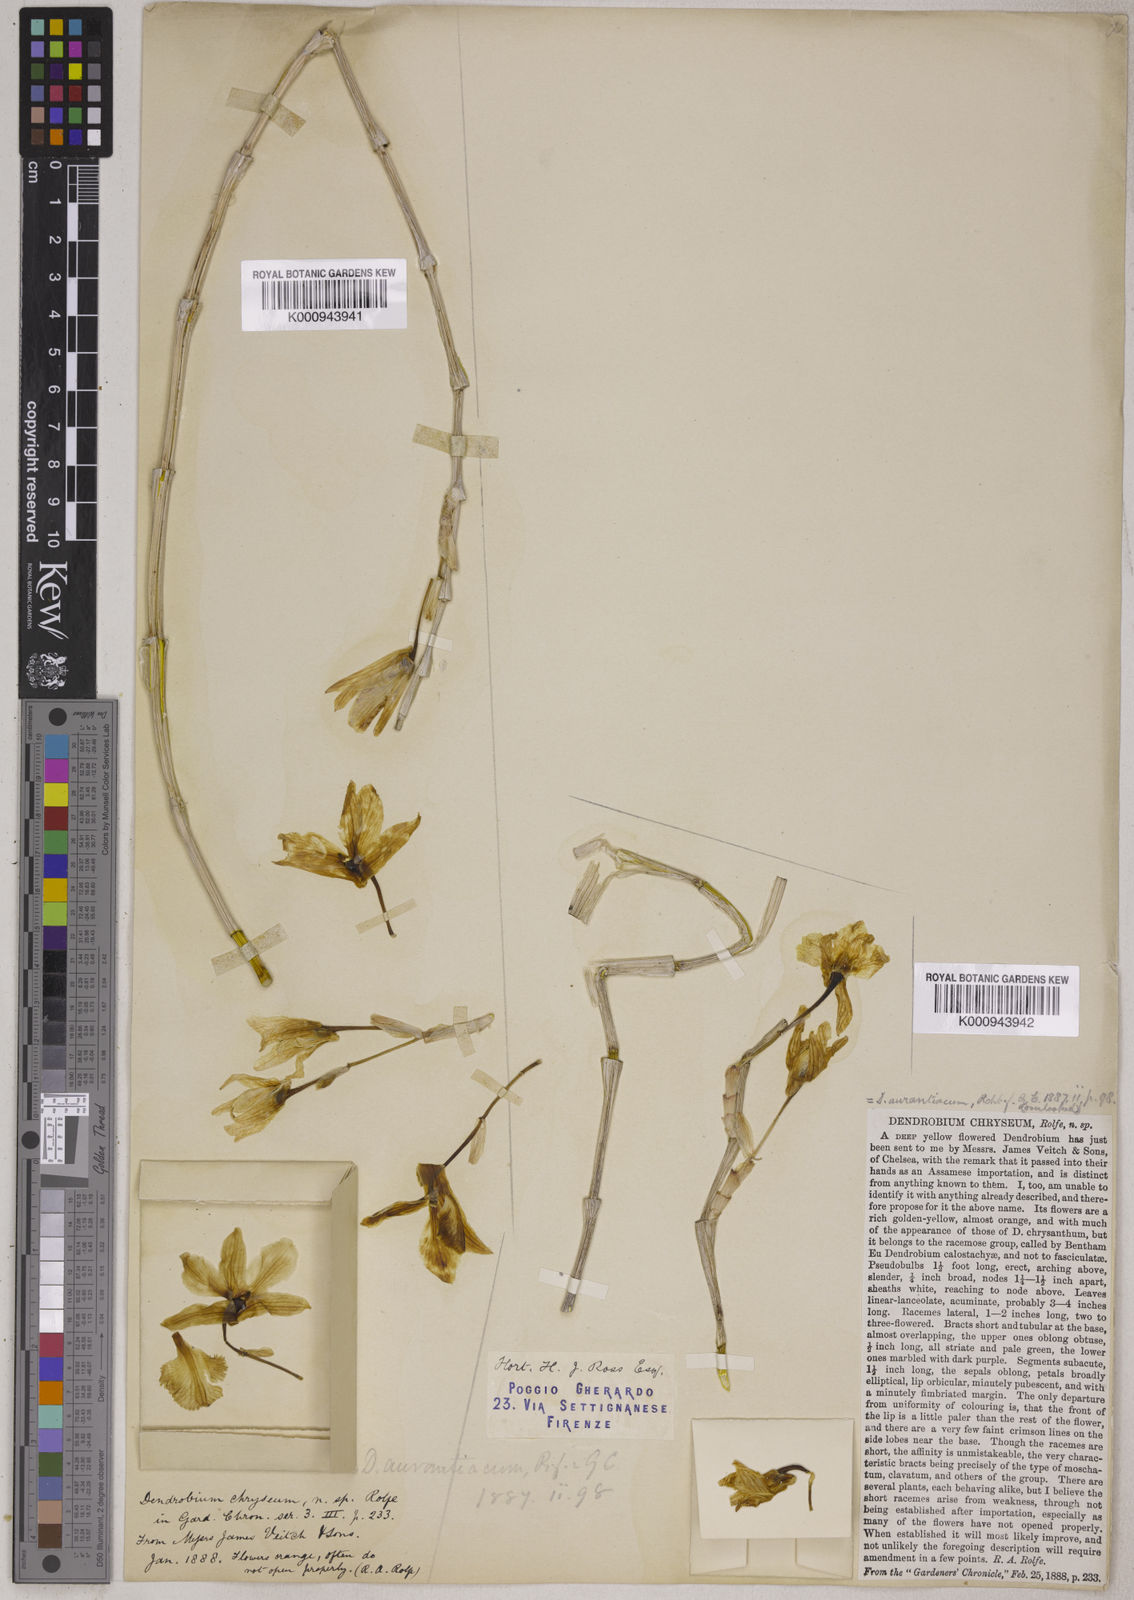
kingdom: Plantae
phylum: Tracheophyta
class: Liliopsida
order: Asparagales
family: Orchidaceae
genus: Bulbophyllum
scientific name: Bulbophyllum schillerianum
